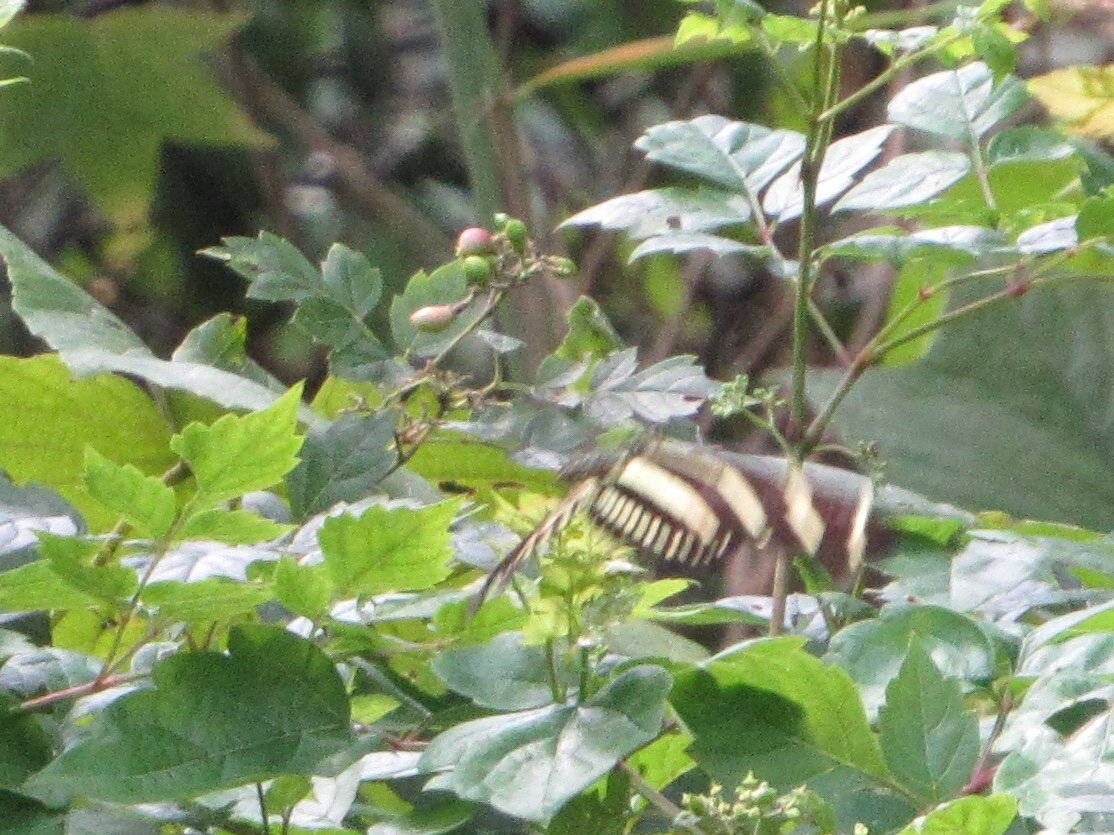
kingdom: Animalia
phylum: Arthropoda
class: Insecta
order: Lepidoptera
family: Nymphalidae
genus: Heliconius
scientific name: Heliconius charithonia
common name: Zebra Longwing
